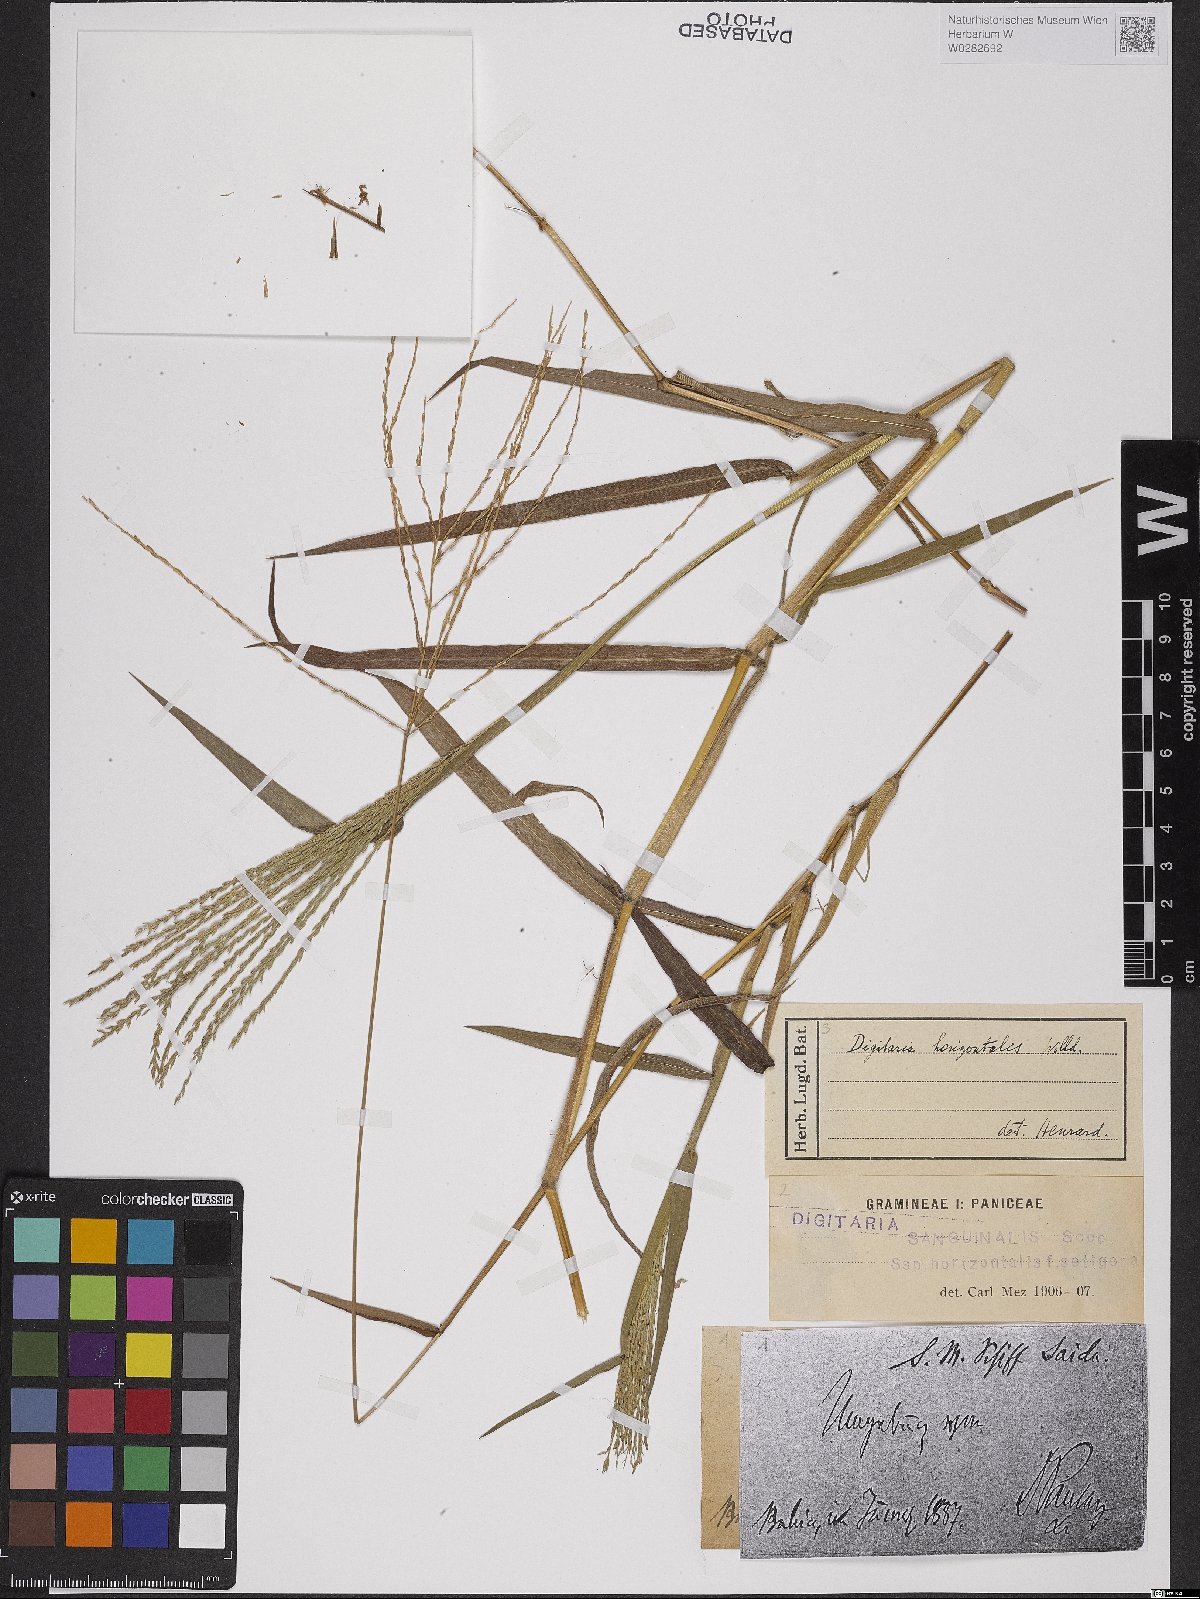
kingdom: Plantae
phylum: Tracheophyta
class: Liliopsida
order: Poales
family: Poaceae
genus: Digitaria
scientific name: Digitaria horizontalis
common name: Jamaican crabgrass
